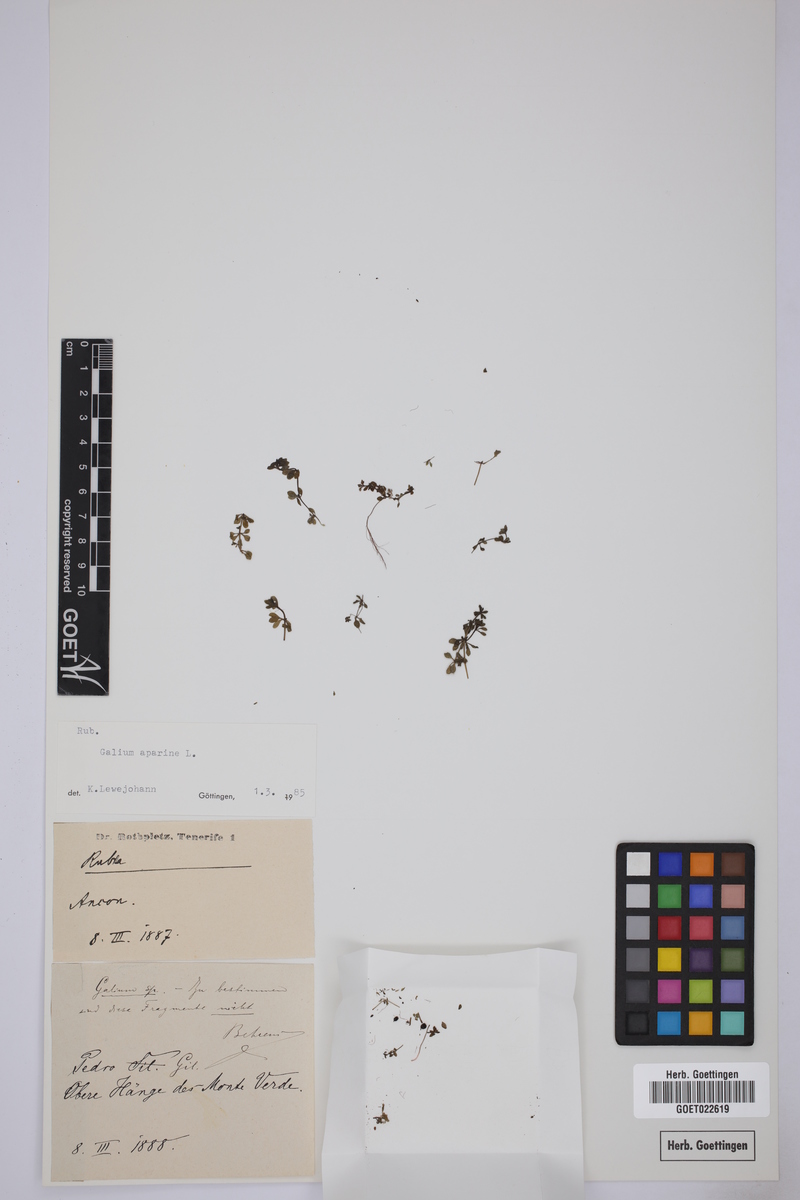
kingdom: Plantae
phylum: Tracheophyta
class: Magnoliopsida
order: Gentianales
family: Rubiaceae
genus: Galium
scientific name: Galium aparine
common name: Cleavers
